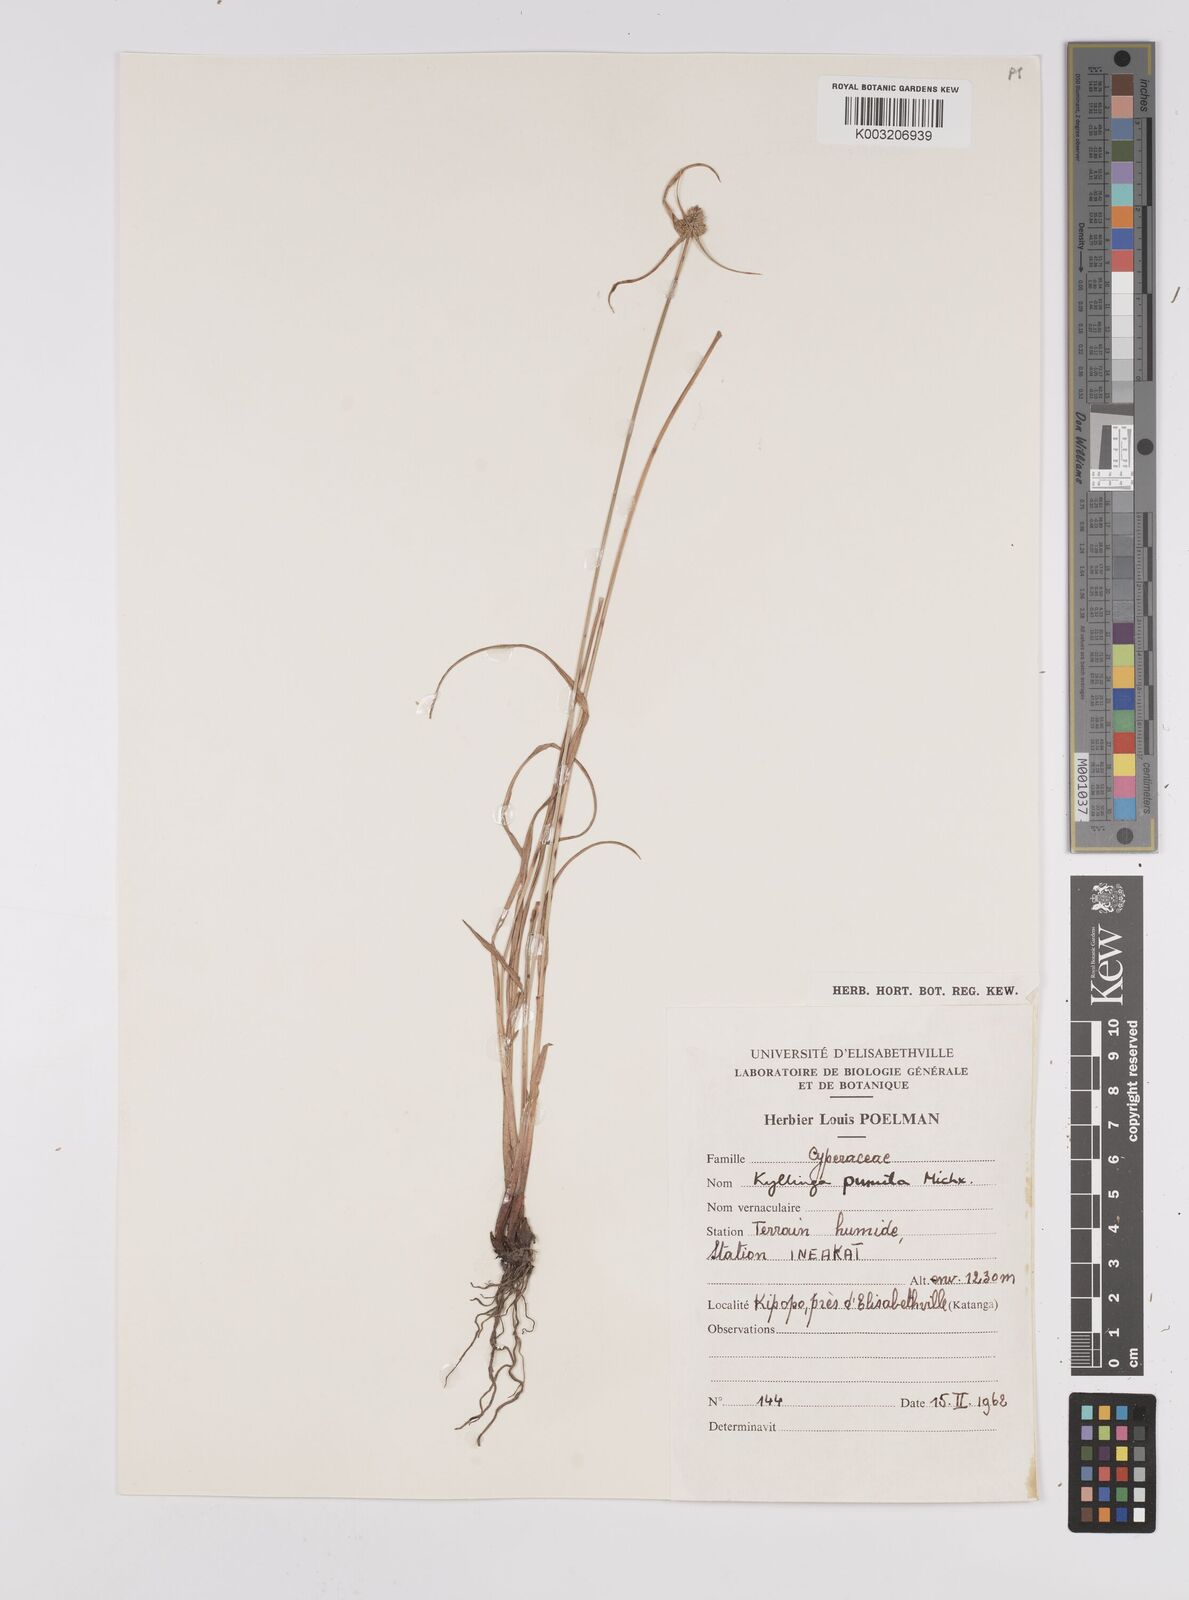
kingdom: Plantae
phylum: Tracheophyta
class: Liliopsida
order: Poales
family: Cyperaceae
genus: Cyperus
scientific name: Cyperus hortensis
